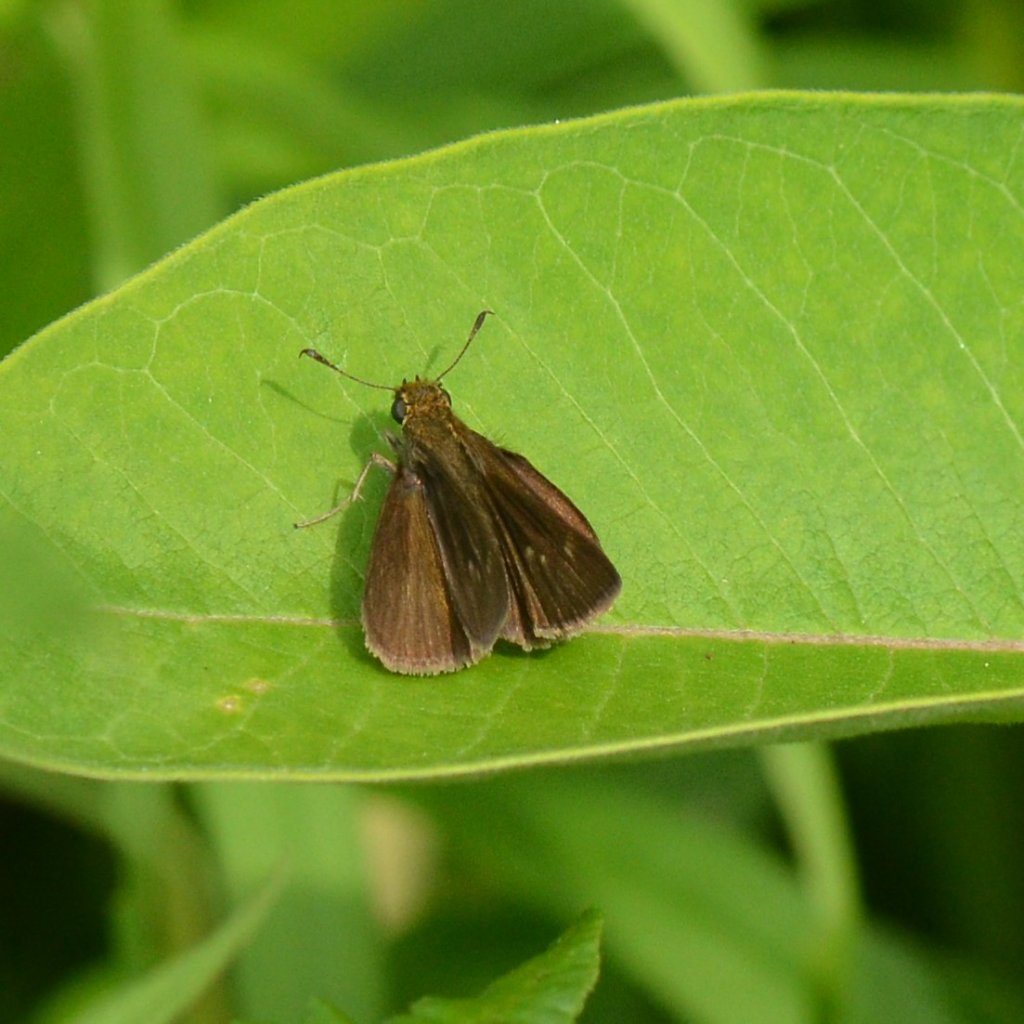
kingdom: Animalia
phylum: Arthropoda
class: Insecta
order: Lepidoptera
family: Hesperiidae
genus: Euphyes
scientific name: Euphyes vestris
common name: Dun Skipper
